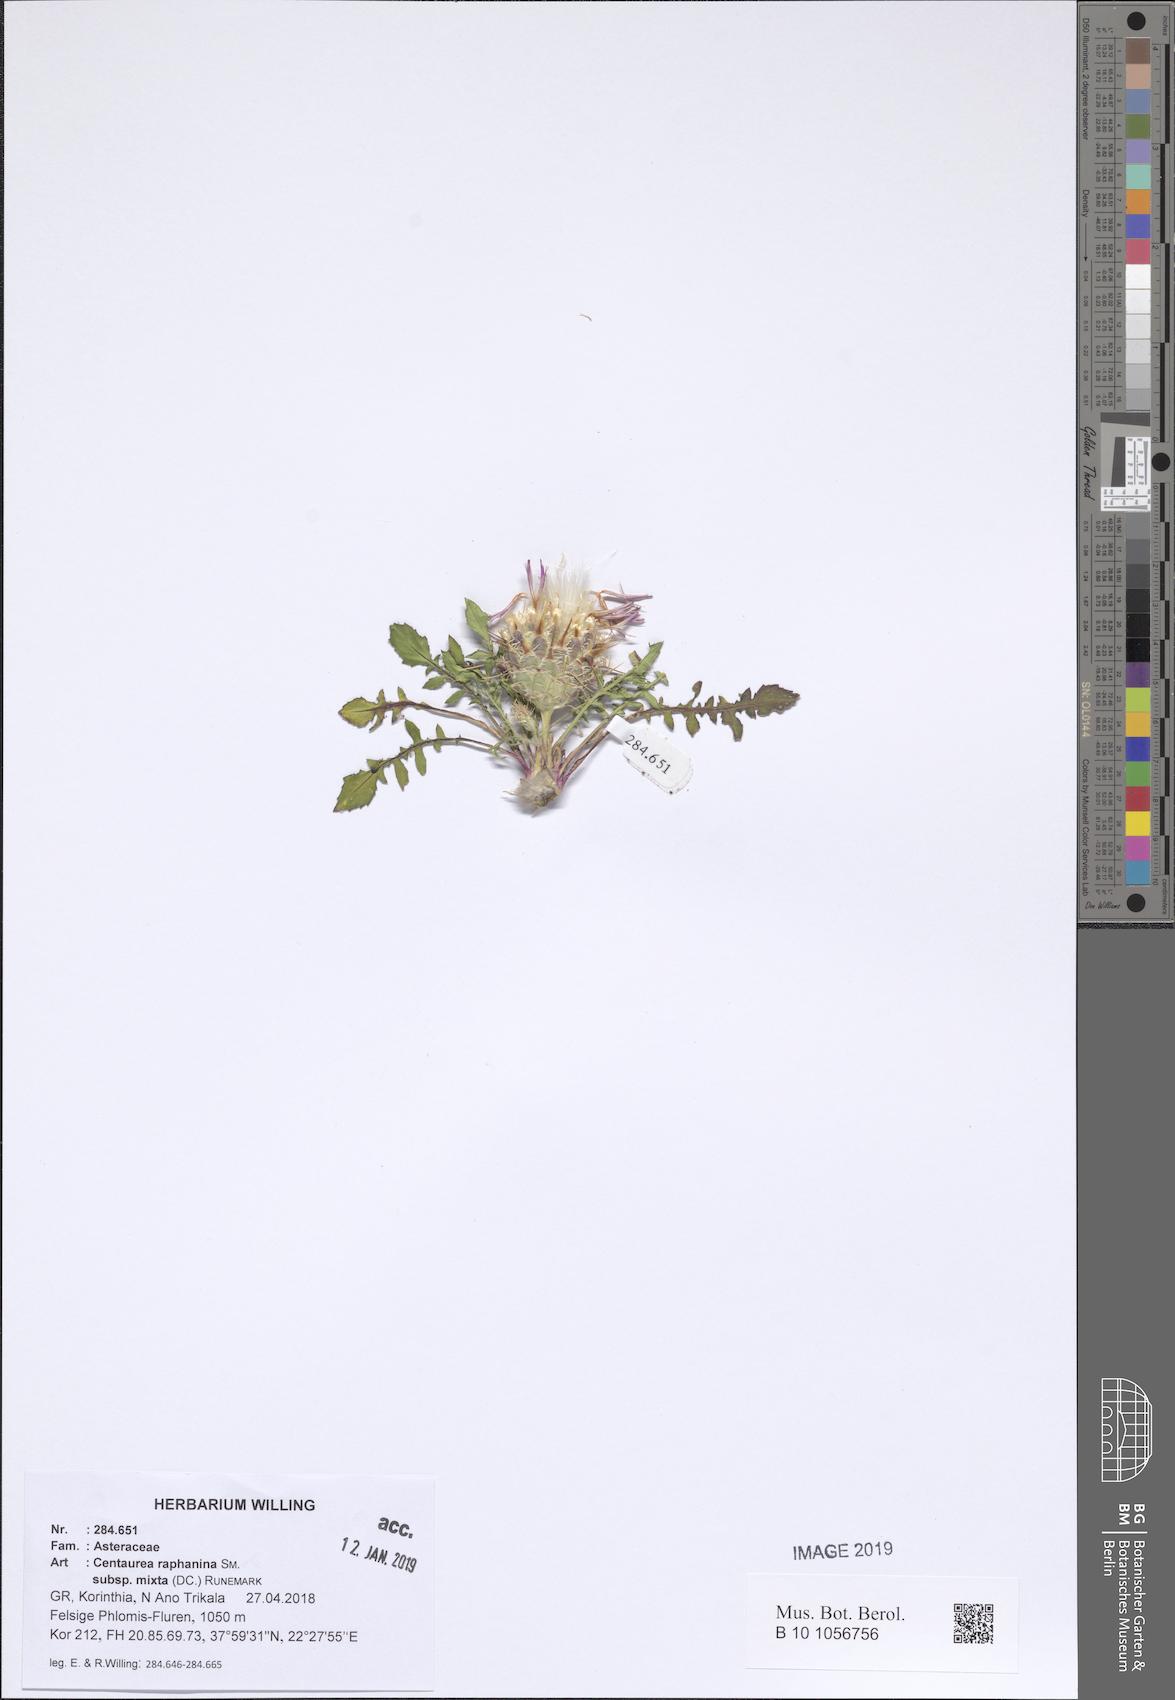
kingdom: Plantae
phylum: Tracheophyta
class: Magnoliopsida
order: Asterales
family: Asteraceae
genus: Centaurea
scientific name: Centaurea raphanina
